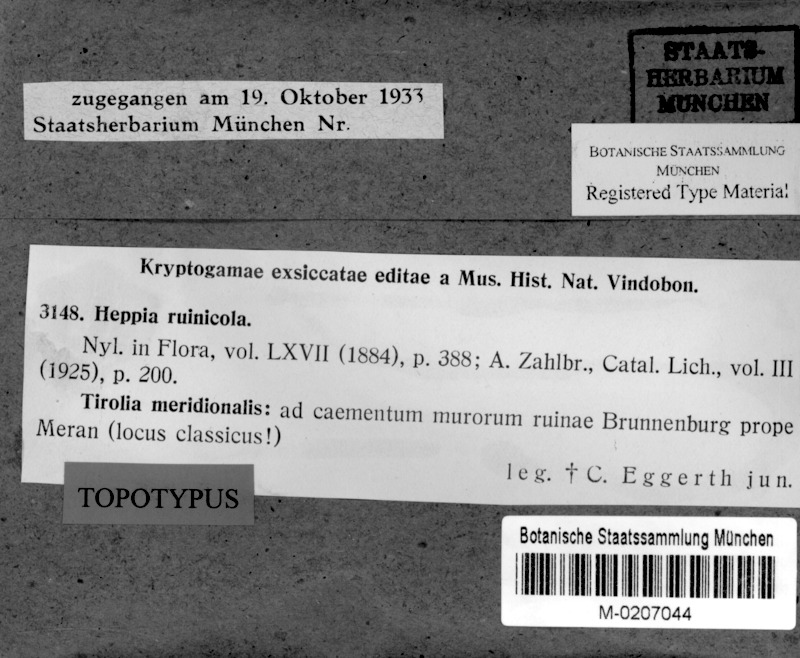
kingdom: Fungi
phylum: Ascomycota
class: Lichinomycetes
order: Lichinales
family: Peltulaceae
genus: Peltula
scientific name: Peltula euploca
